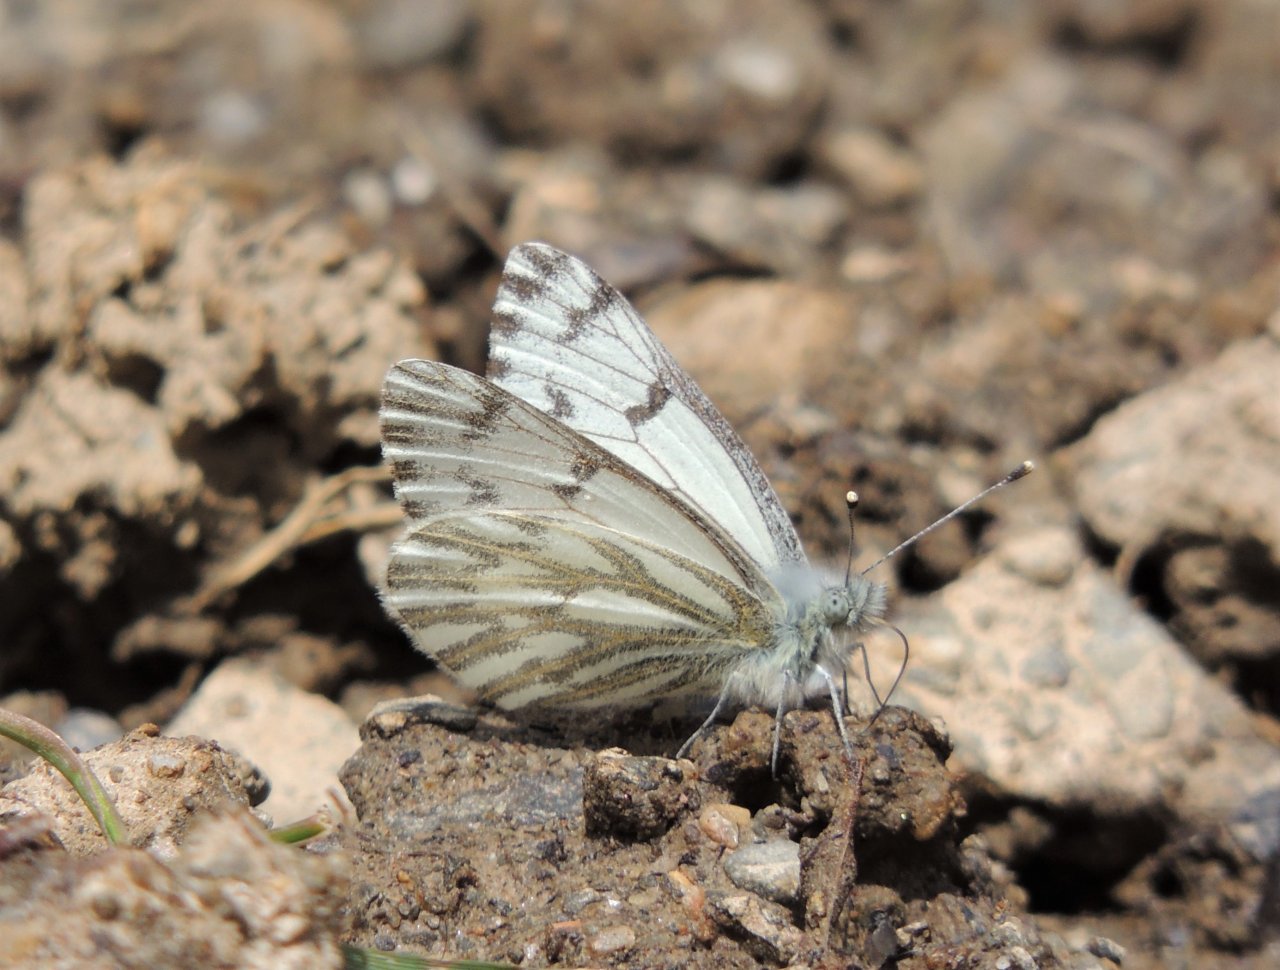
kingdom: Animalia
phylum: Arthropoda
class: Insecta
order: Lepidoptera
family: Pieridae
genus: Pontia
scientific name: Pontia sisymbrii
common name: Spring White
